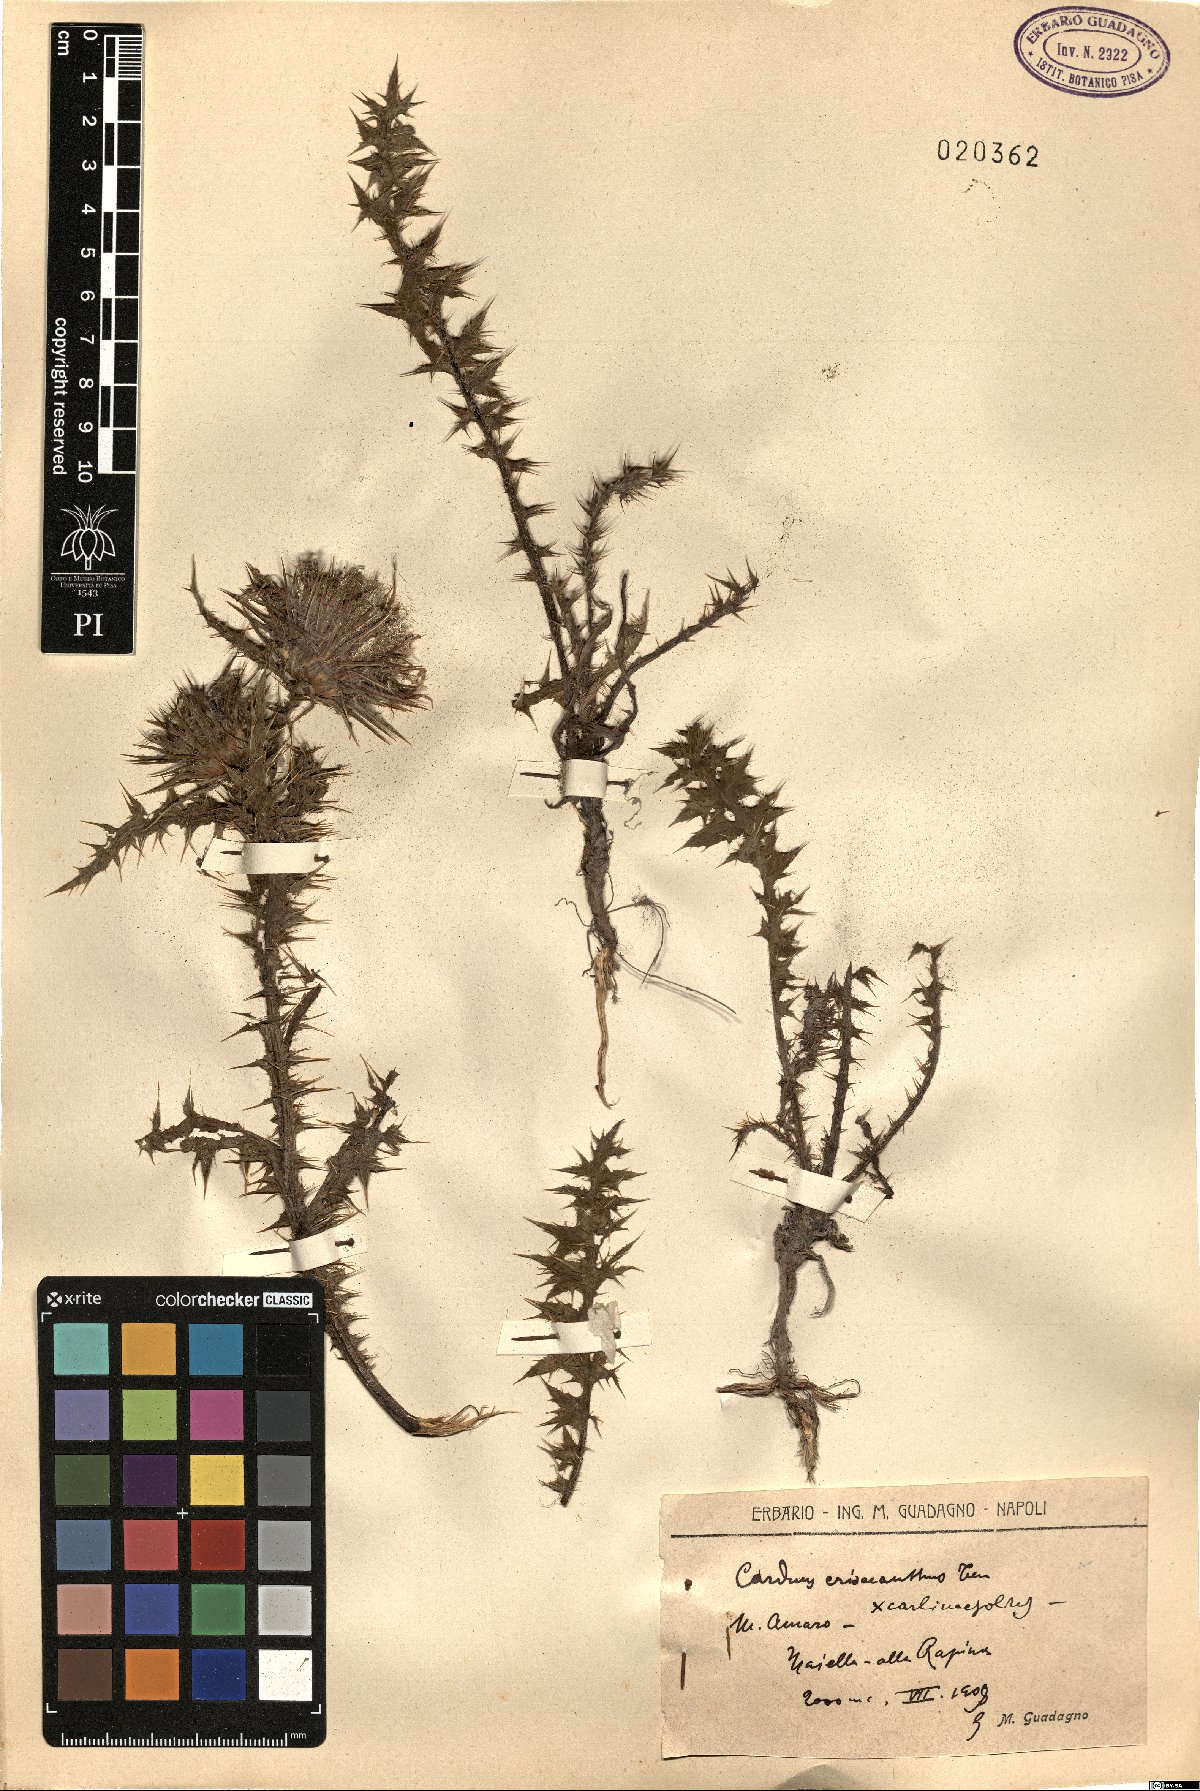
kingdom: Plantae
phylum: Tracheophyta
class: Magnoliopsida
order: Asterales
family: Asteraceae
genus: Carduus
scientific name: Carduus chrysacanthus
